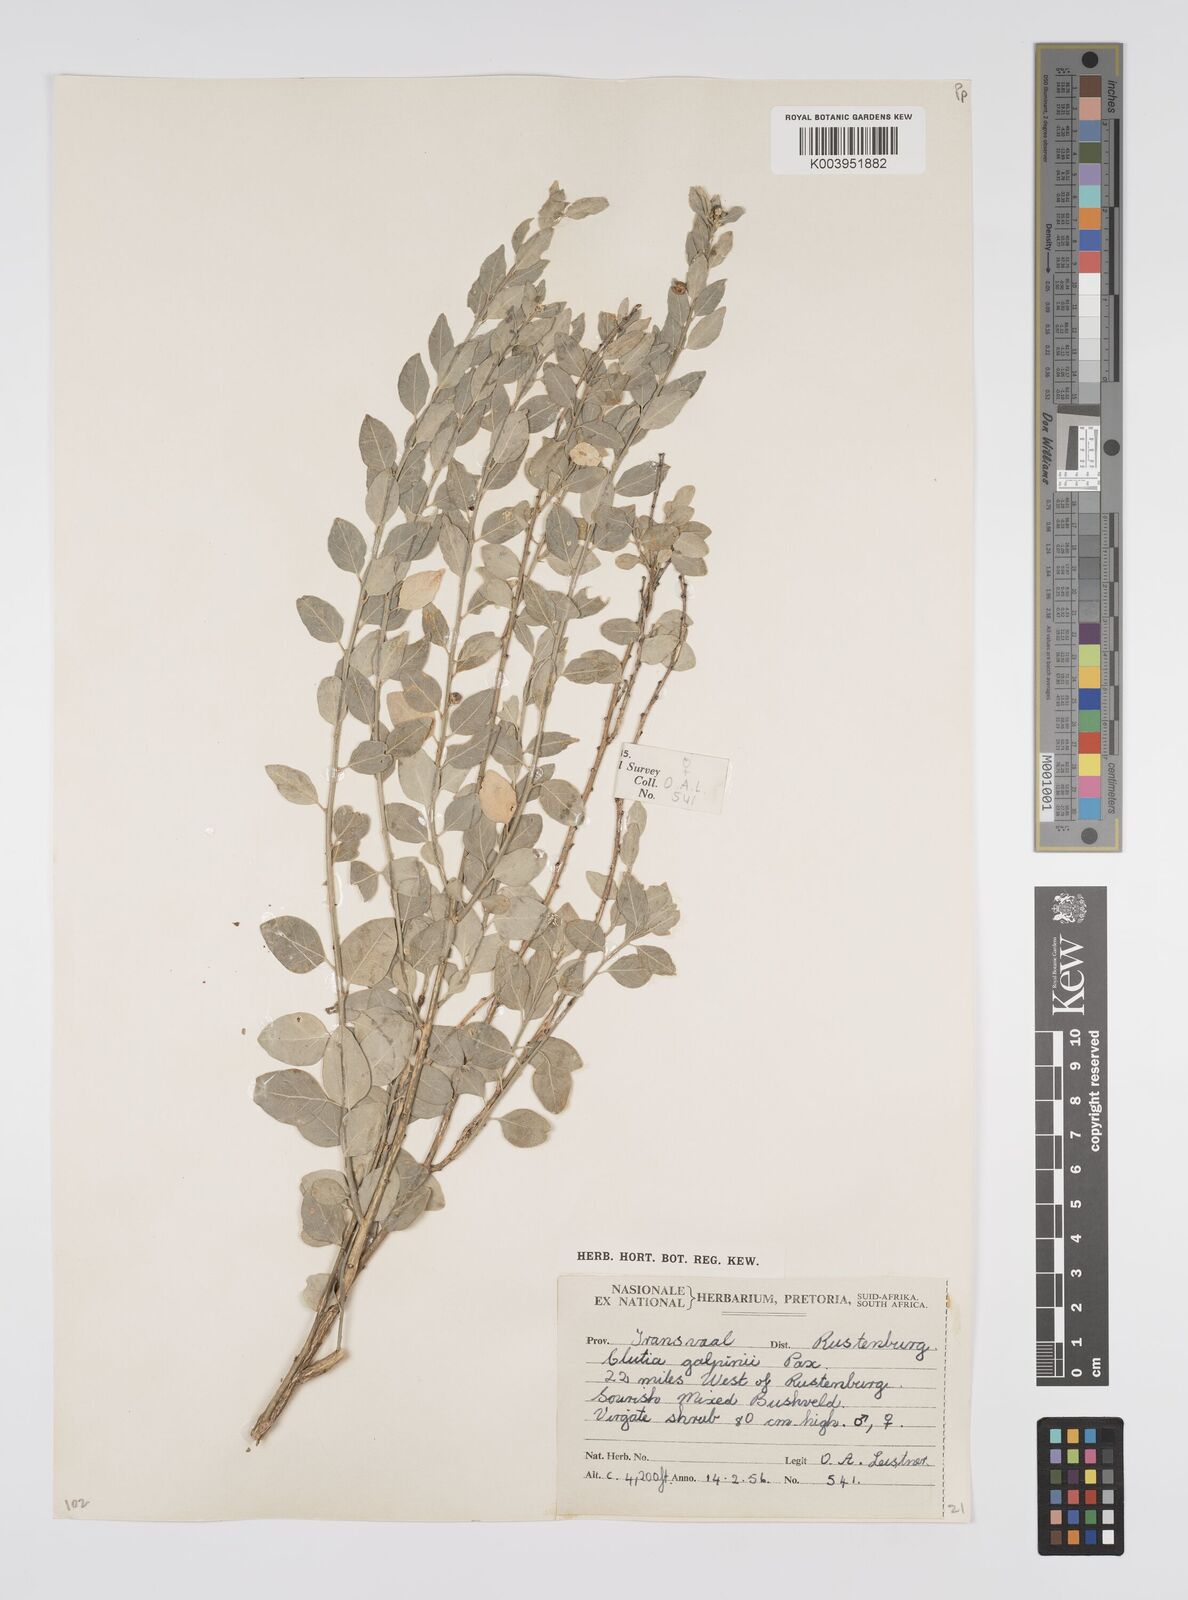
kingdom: Plantae
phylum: Tracheophyta
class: Magnoliopsida
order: Malpighiales
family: Peraceae
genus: Clutia
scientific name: Clutia galpinii
